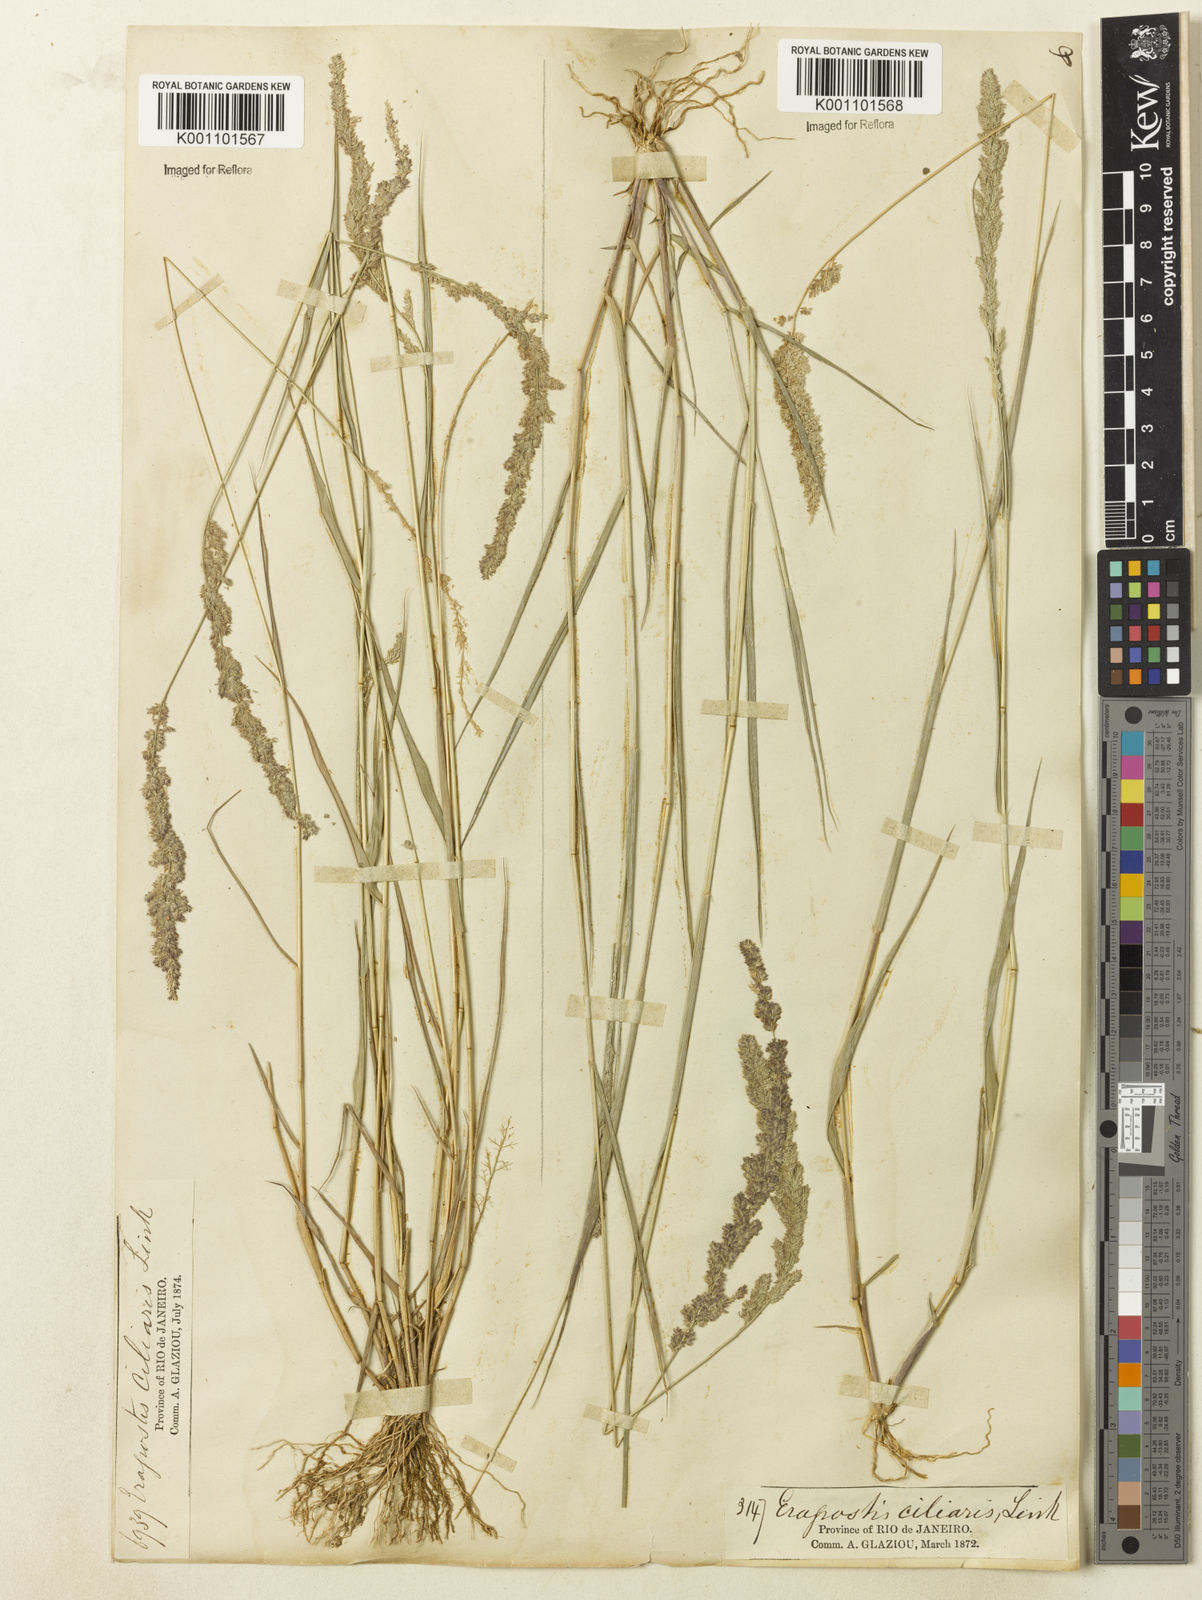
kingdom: Plantae
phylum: Tracheophyta
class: Liliopsida
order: Poales
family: Poaceae
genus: Eragrostis
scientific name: Eragrostis ciliaris
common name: Gophertail lovegrass
